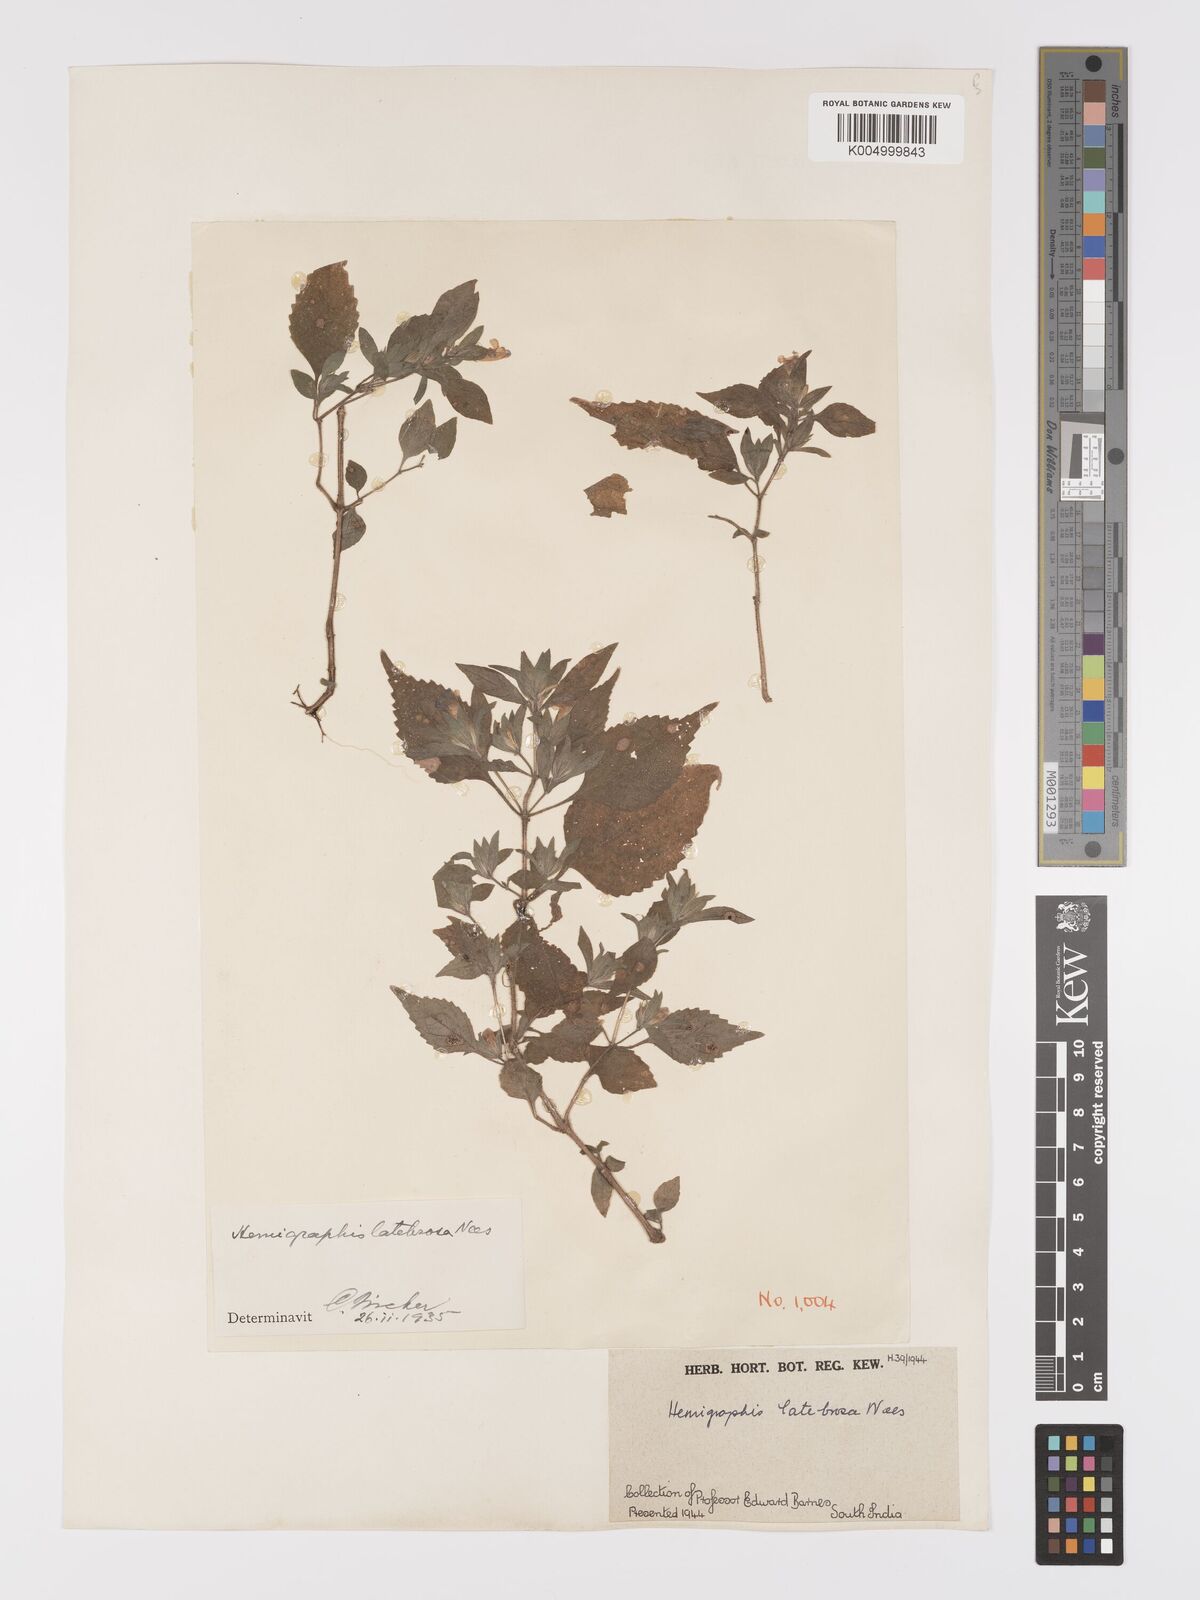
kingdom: Plantae
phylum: Tracheophyta
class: Magnoliopsida
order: Lamiales
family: Acanthaceae
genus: Strobilanthes
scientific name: Strobilanthes pavala
